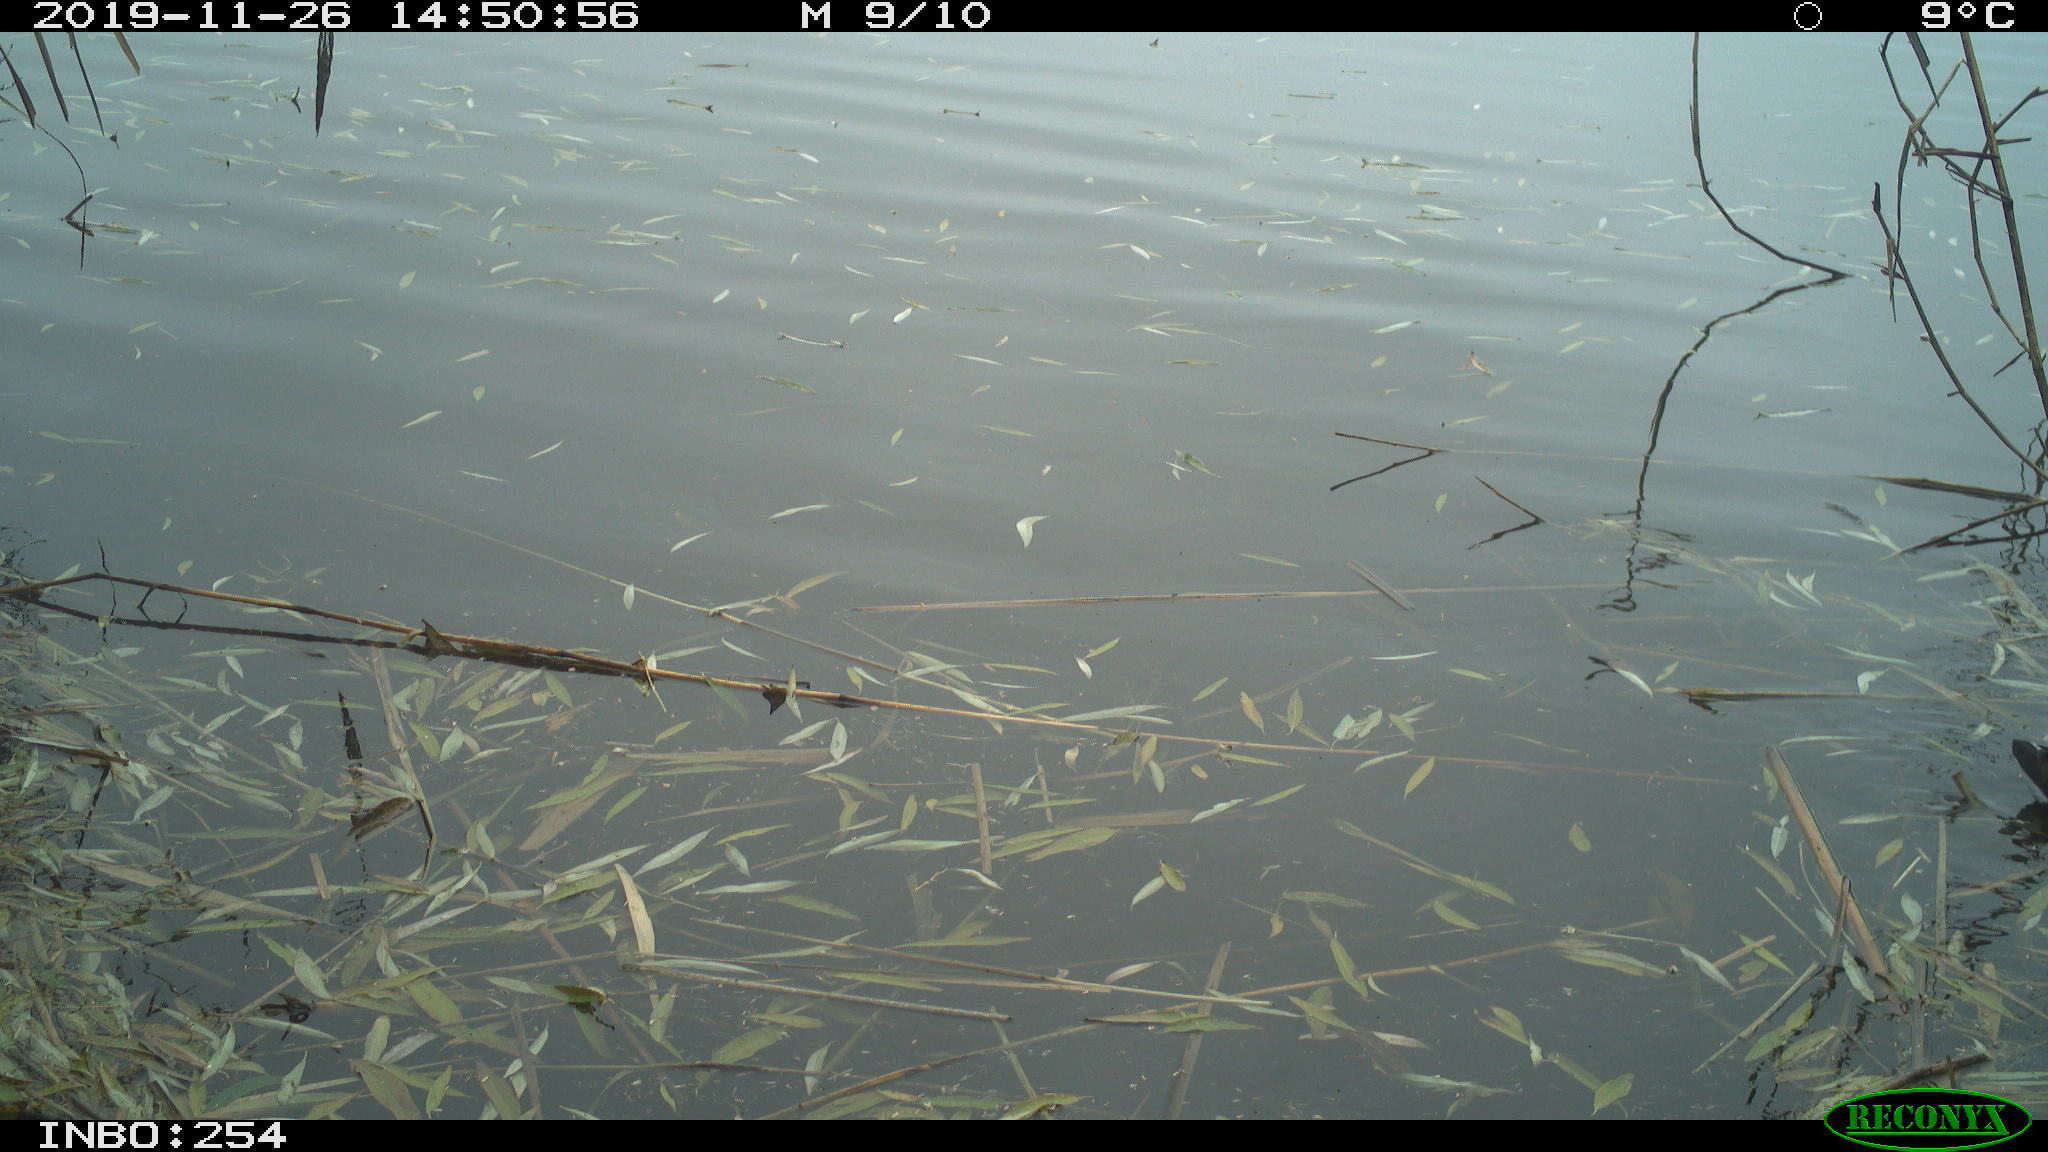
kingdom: Animalia
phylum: Chordata
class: Aves
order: Gruiformes
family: Rallidae
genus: Gallinula
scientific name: Gallinula chloropus
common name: Common moorhen
